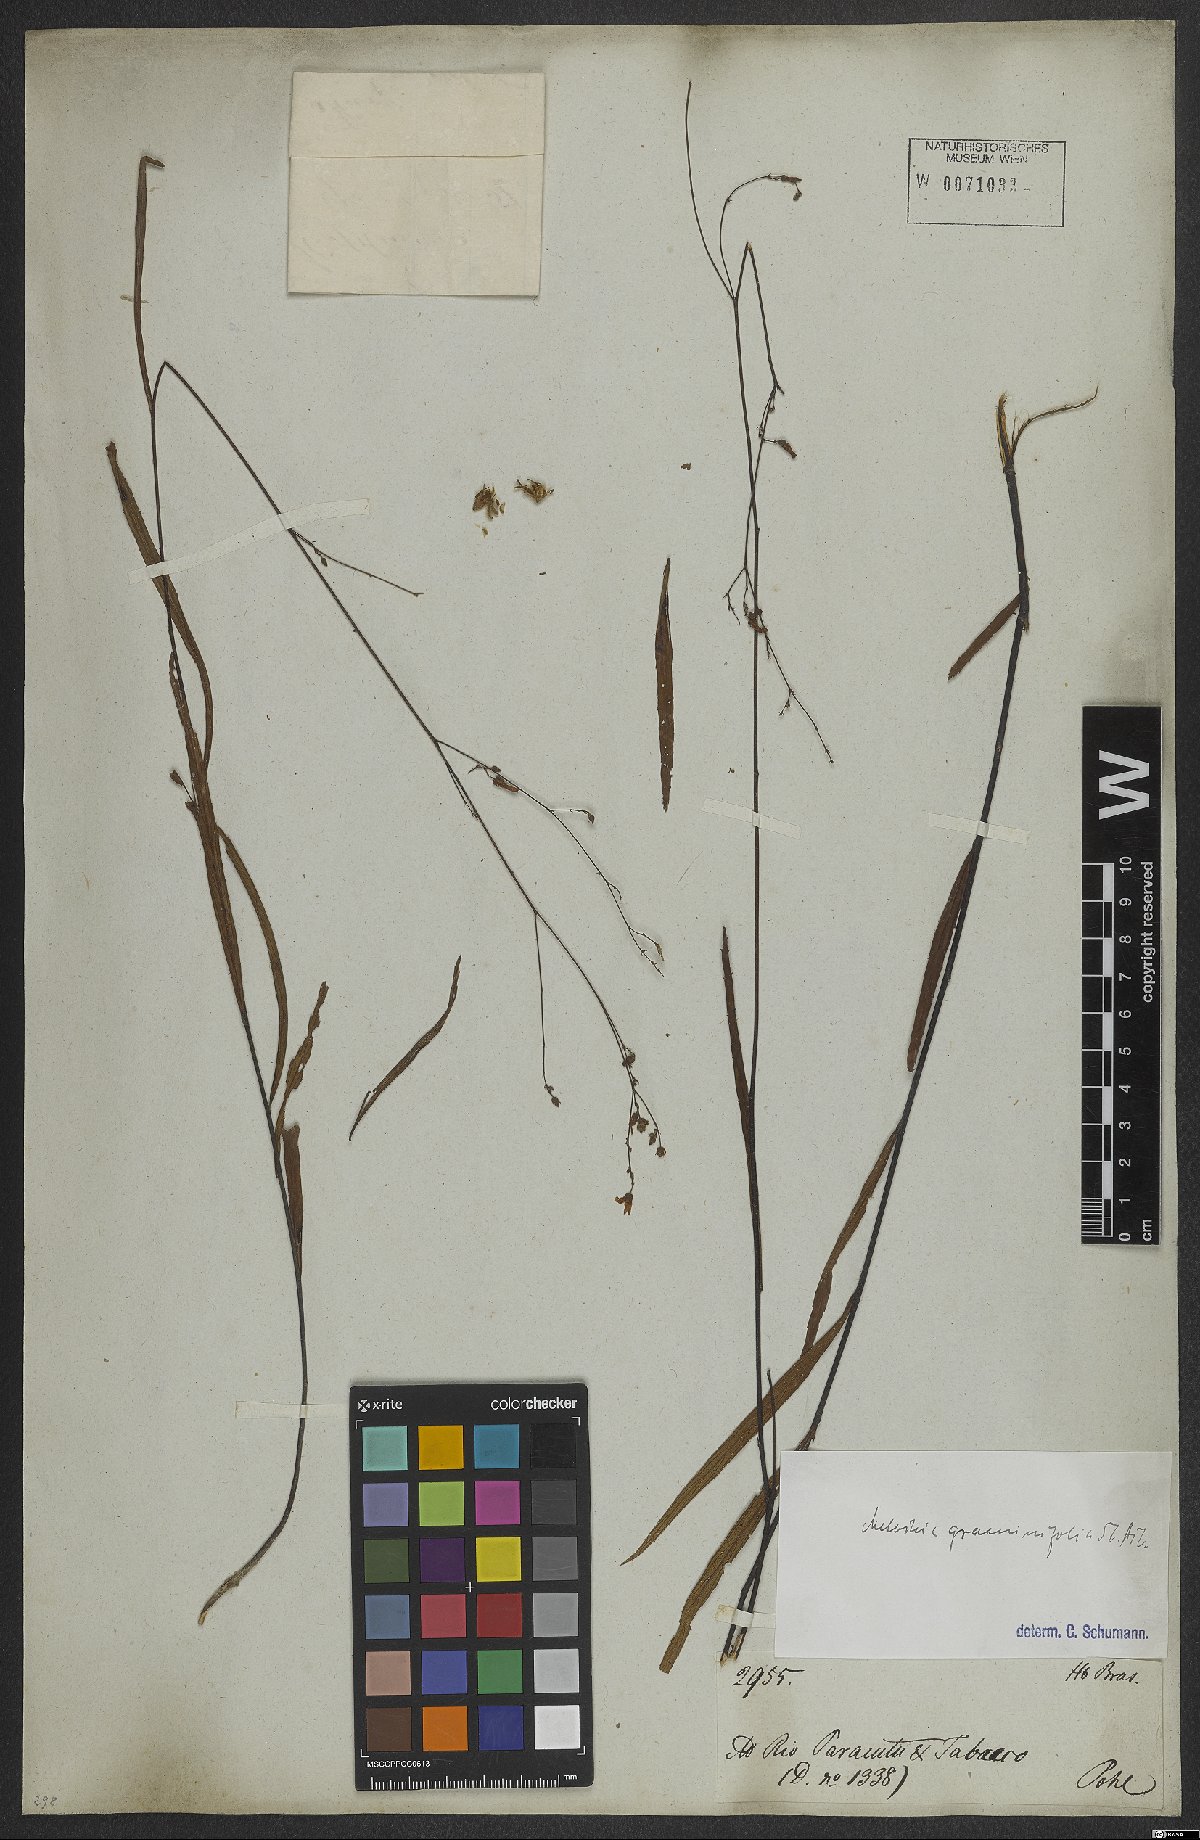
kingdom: Plantae
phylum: Tracheophyta
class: Magnoliopsida
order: Malvales
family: Malvaceae
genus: Melochia
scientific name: Melochia graminifolia
